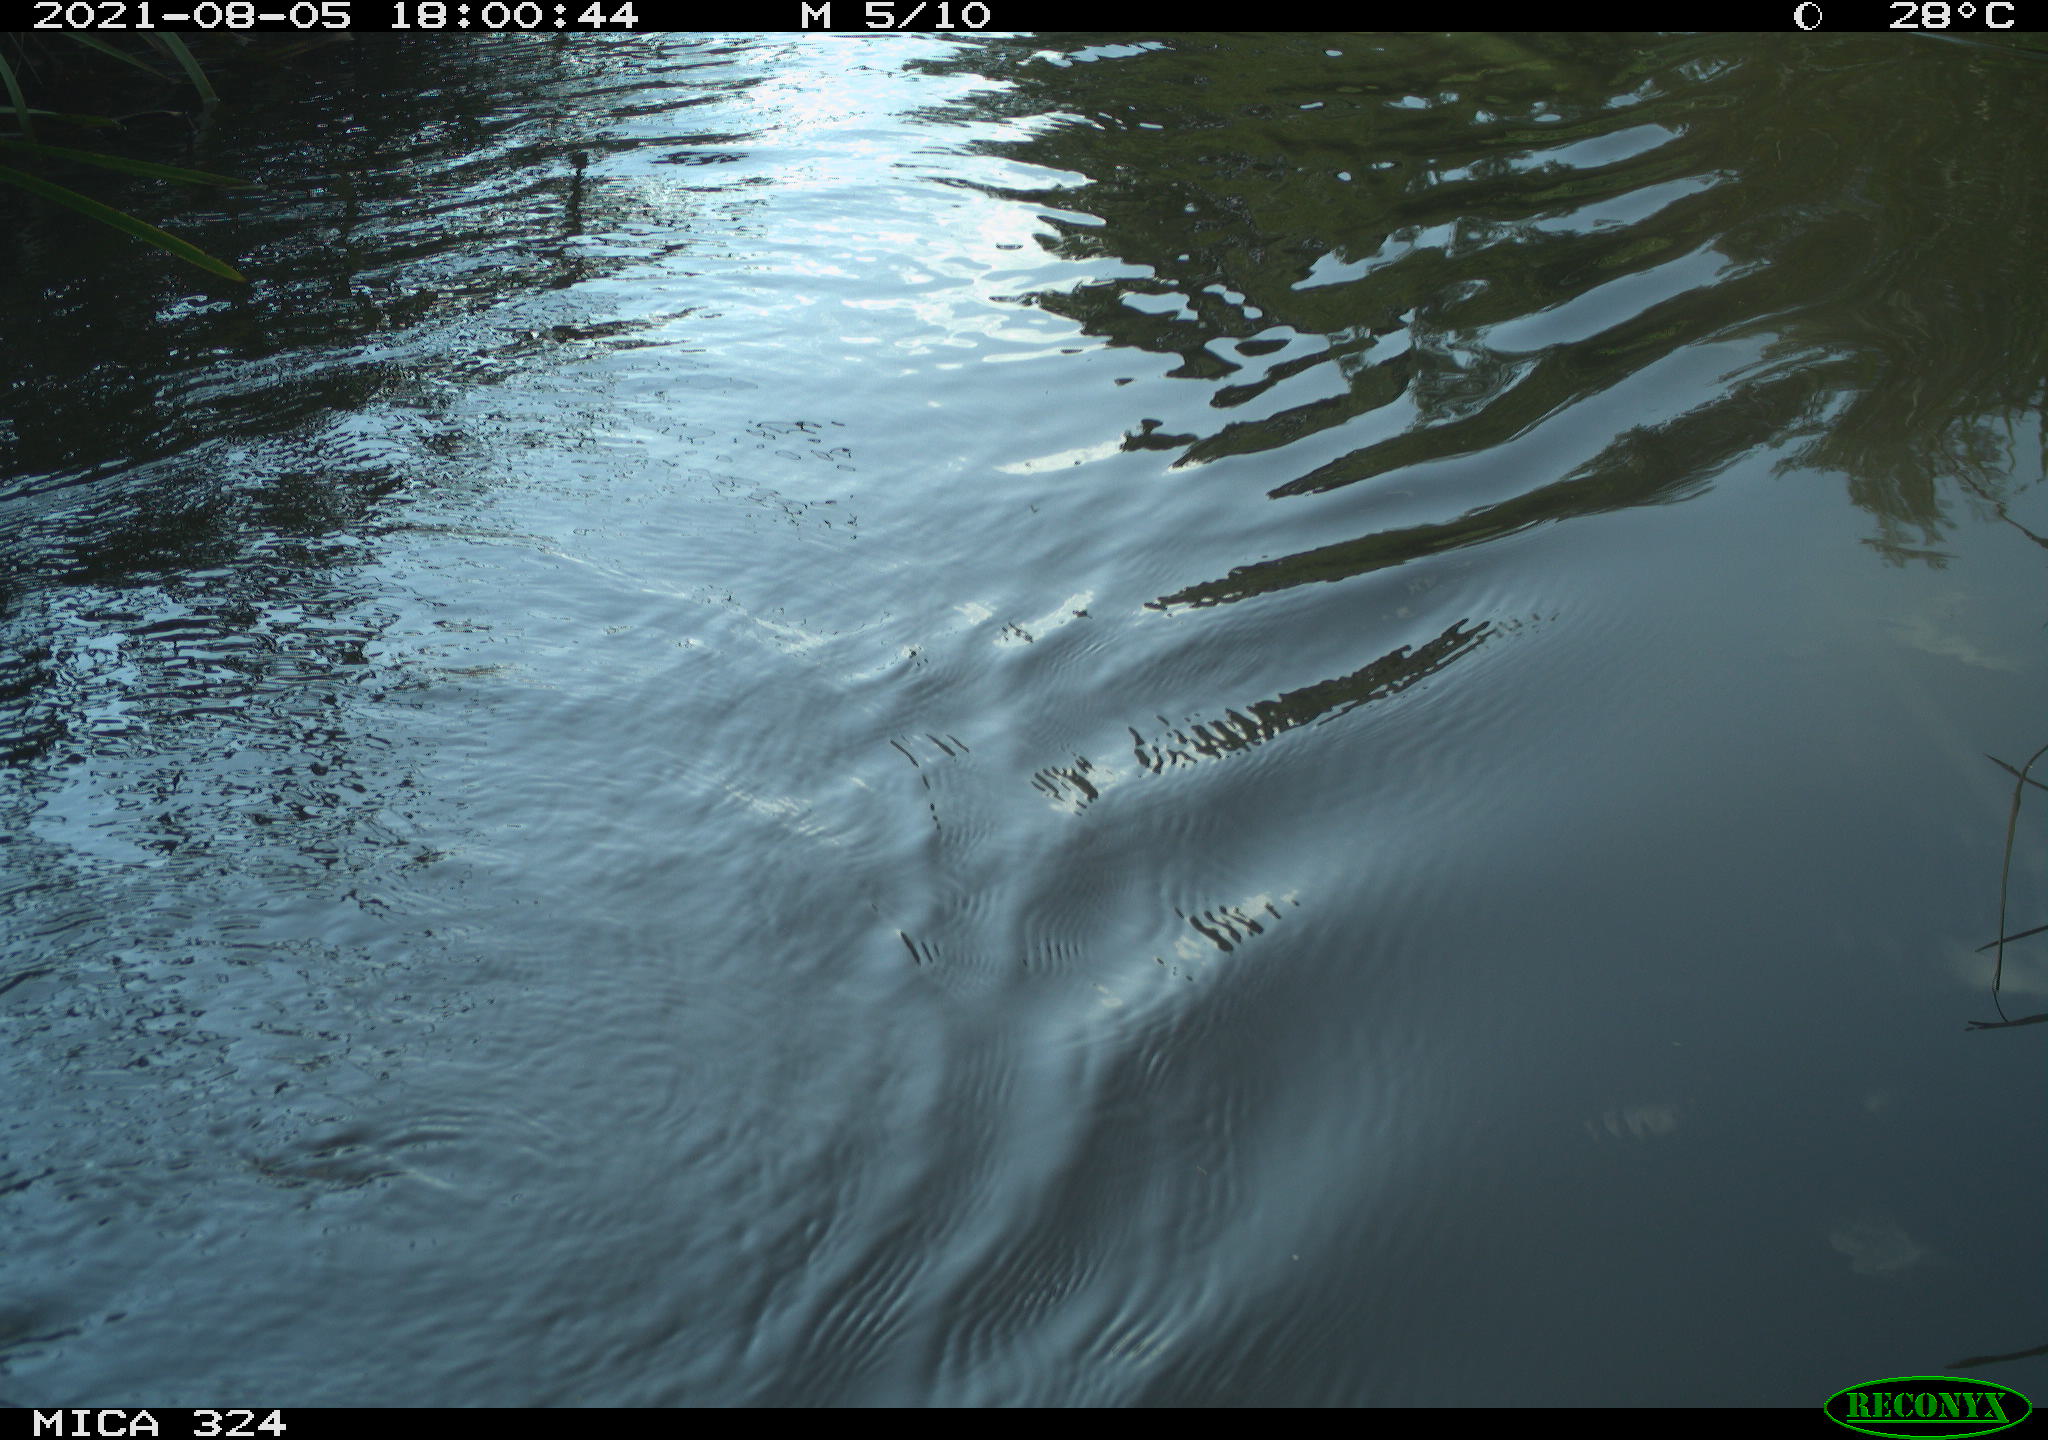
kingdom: Animalia
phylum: Chordata
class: Mammalia
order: Rodentia
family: Cricetidae
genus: Ondatra
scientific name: Ondatra zibethicus
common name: Muskrat
